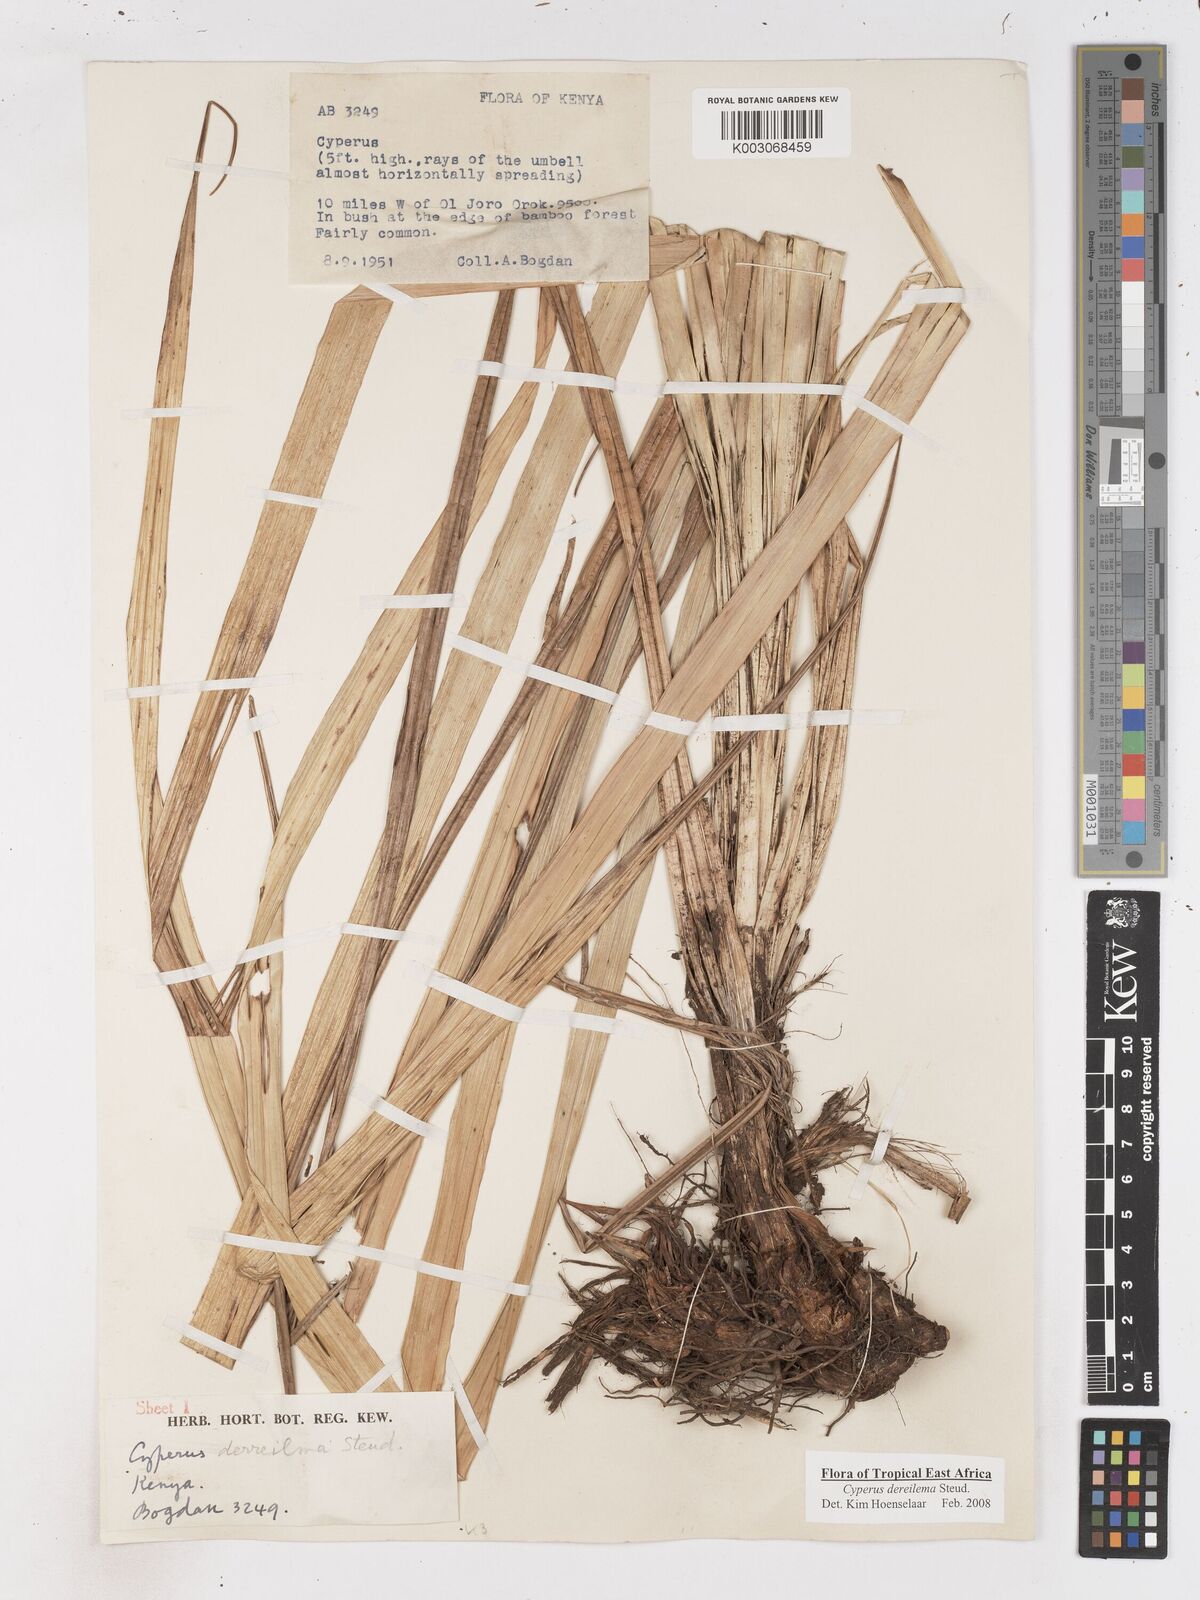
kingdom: Plantae
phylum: Tracheophyta
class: Liliopsida
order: Poales
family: Cyperaceae
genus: Cyperus
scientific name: Cyperus derreilema
